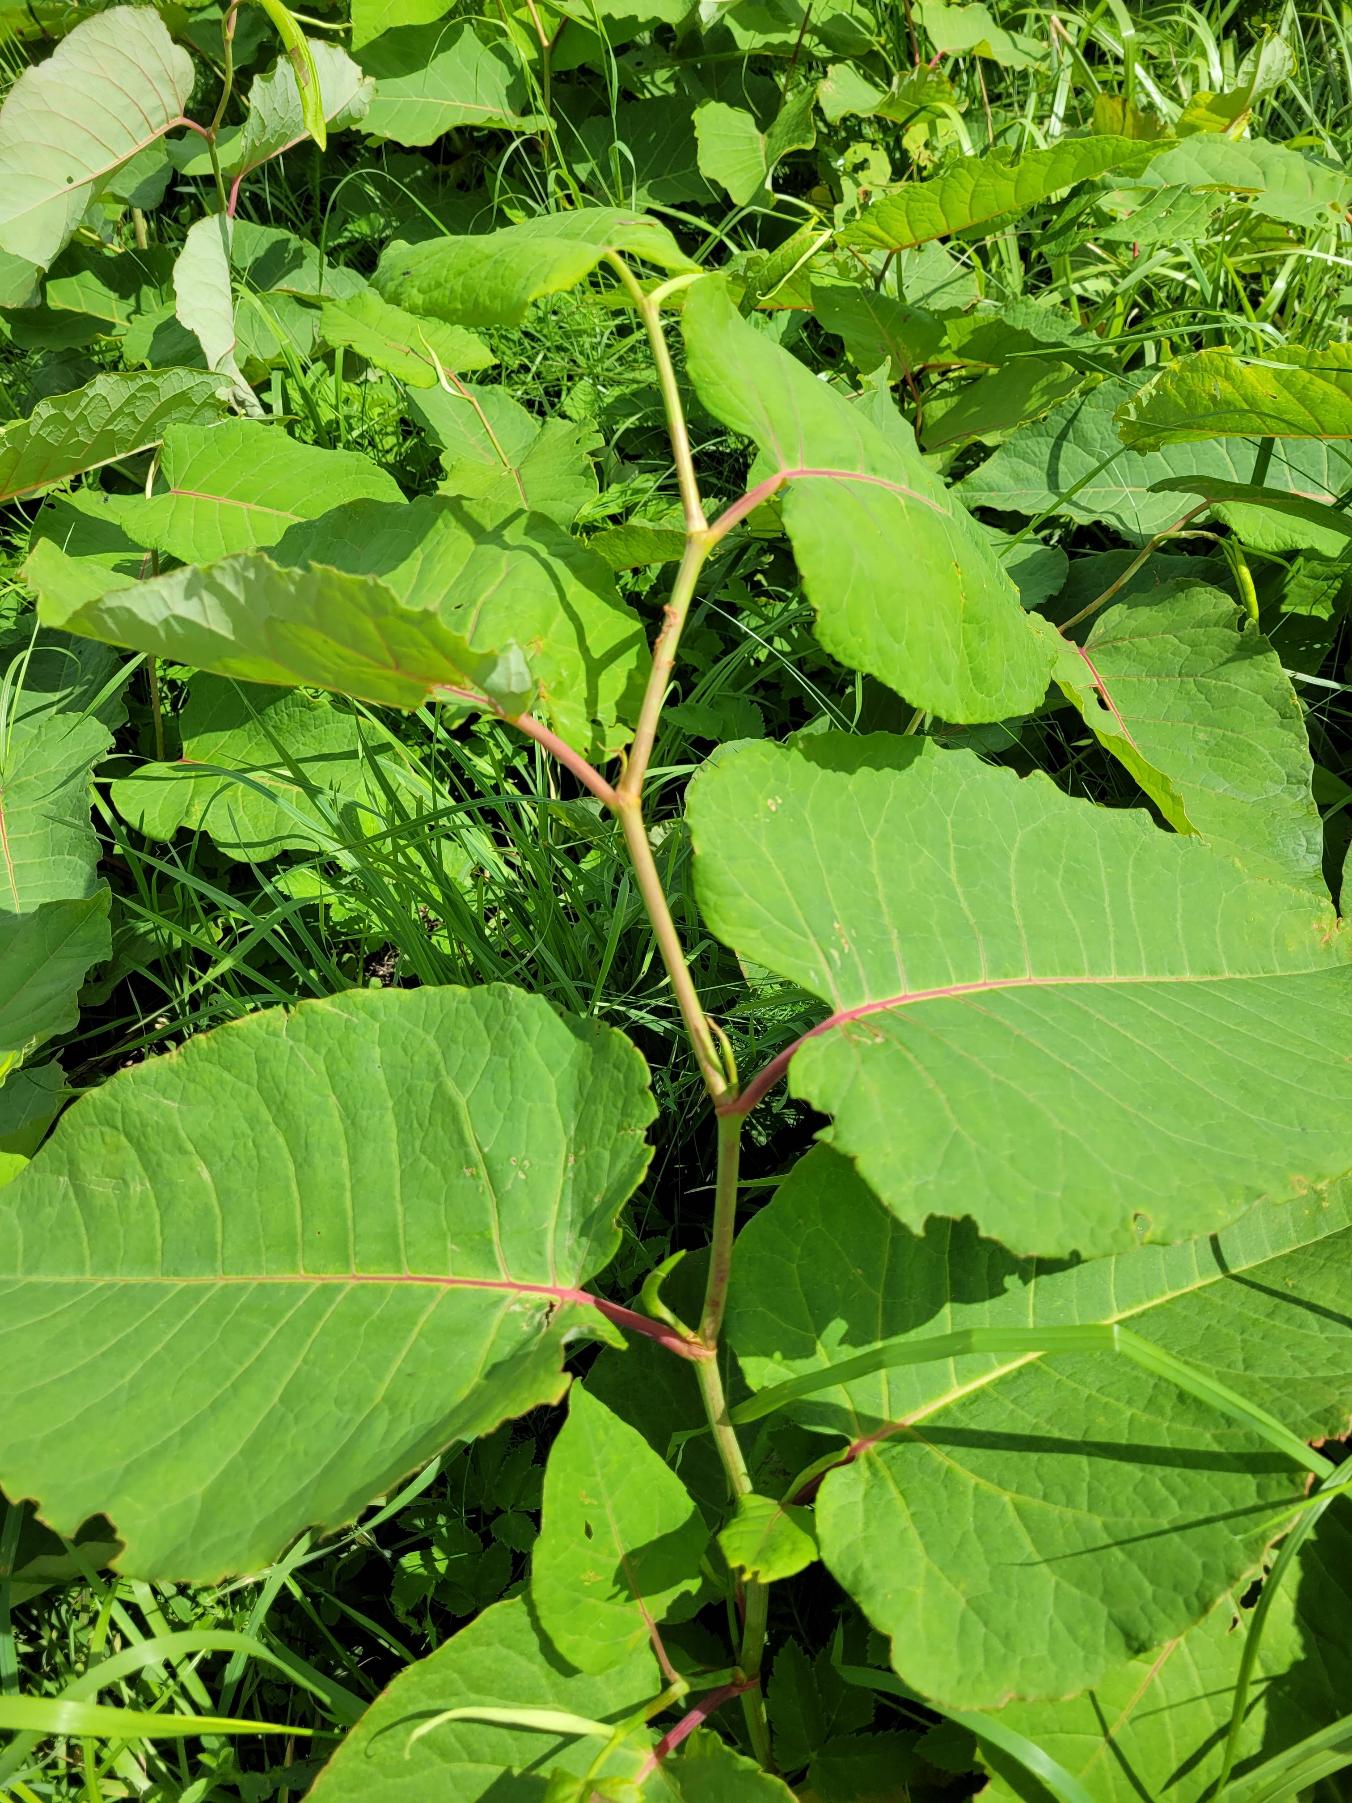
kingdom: Plantae
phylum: Tracheophyta
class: Magnoliopsida
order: Caryophyllales
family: Polygonaceae
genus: Reynoutria
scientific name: Reynoutria sachalinensis
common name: Kæmpe-pileurt
